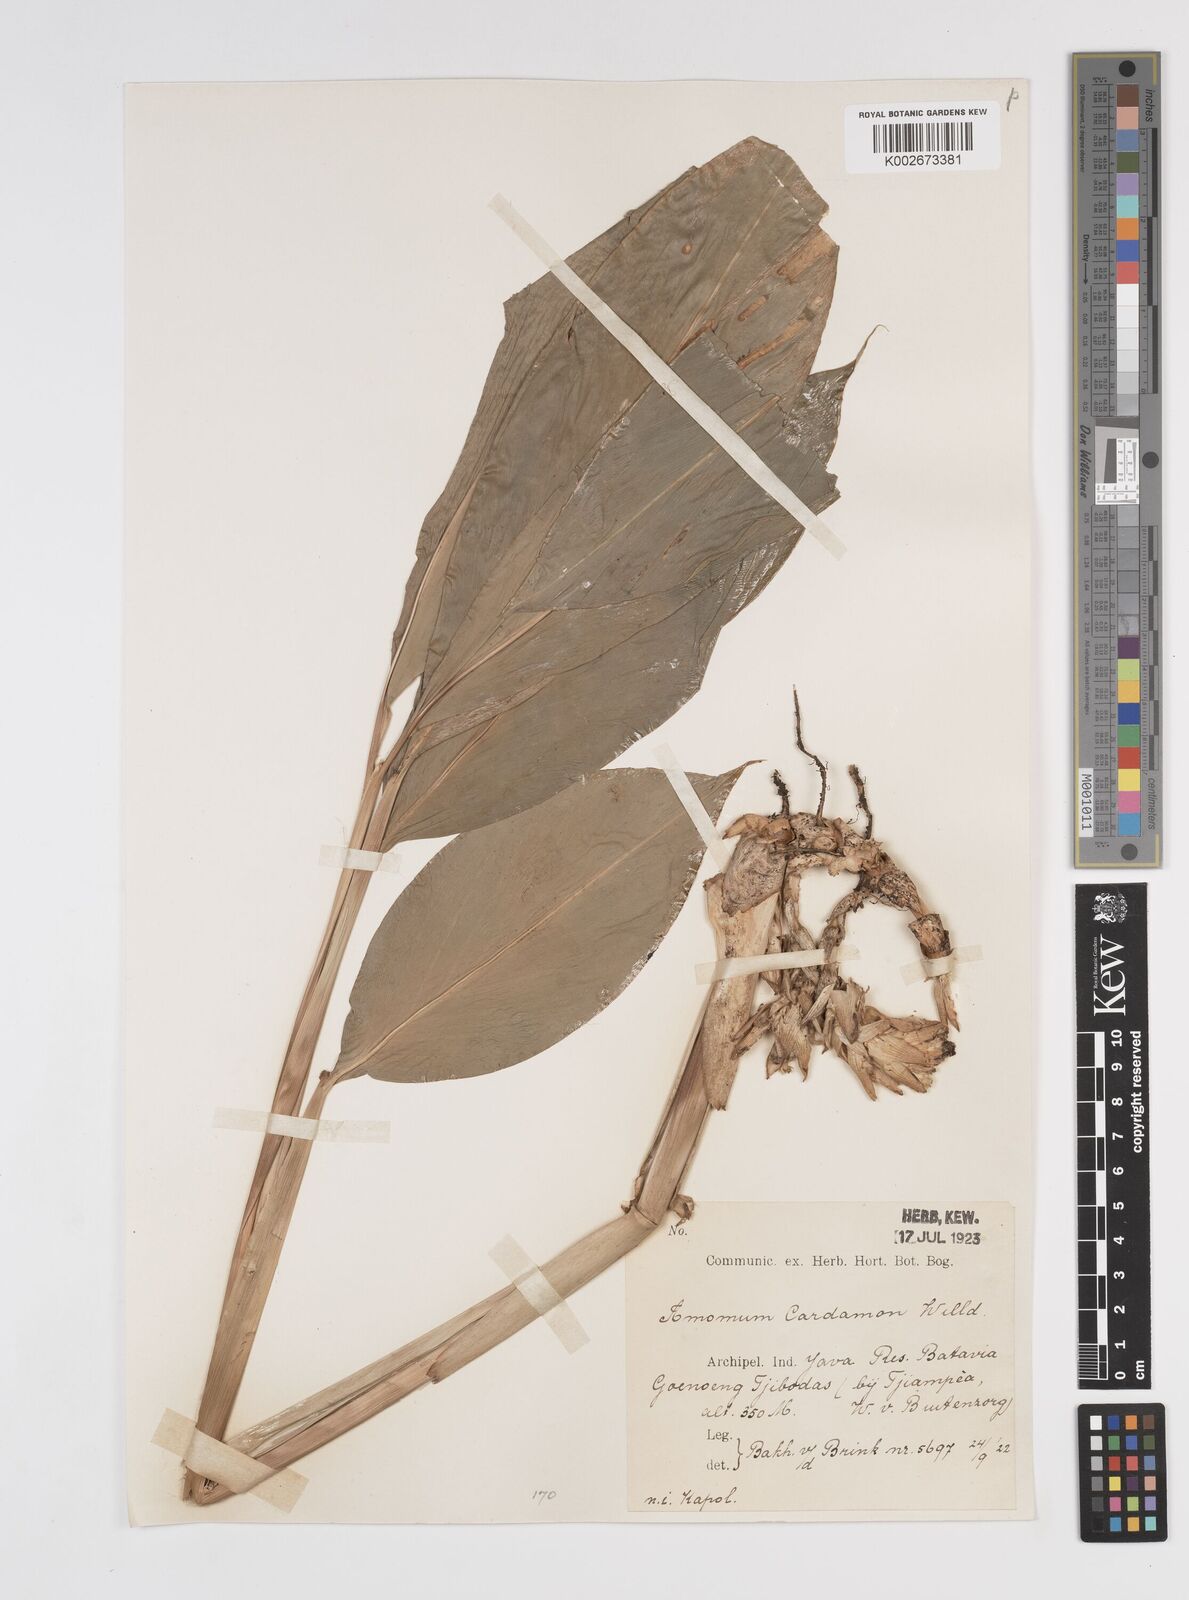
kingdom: Plantae
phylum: Tracheophyta
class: Liliopsida
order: Zingiberales
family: Zingiberaceae
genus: Wurfbainia
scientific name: Wurfbainia compacta
